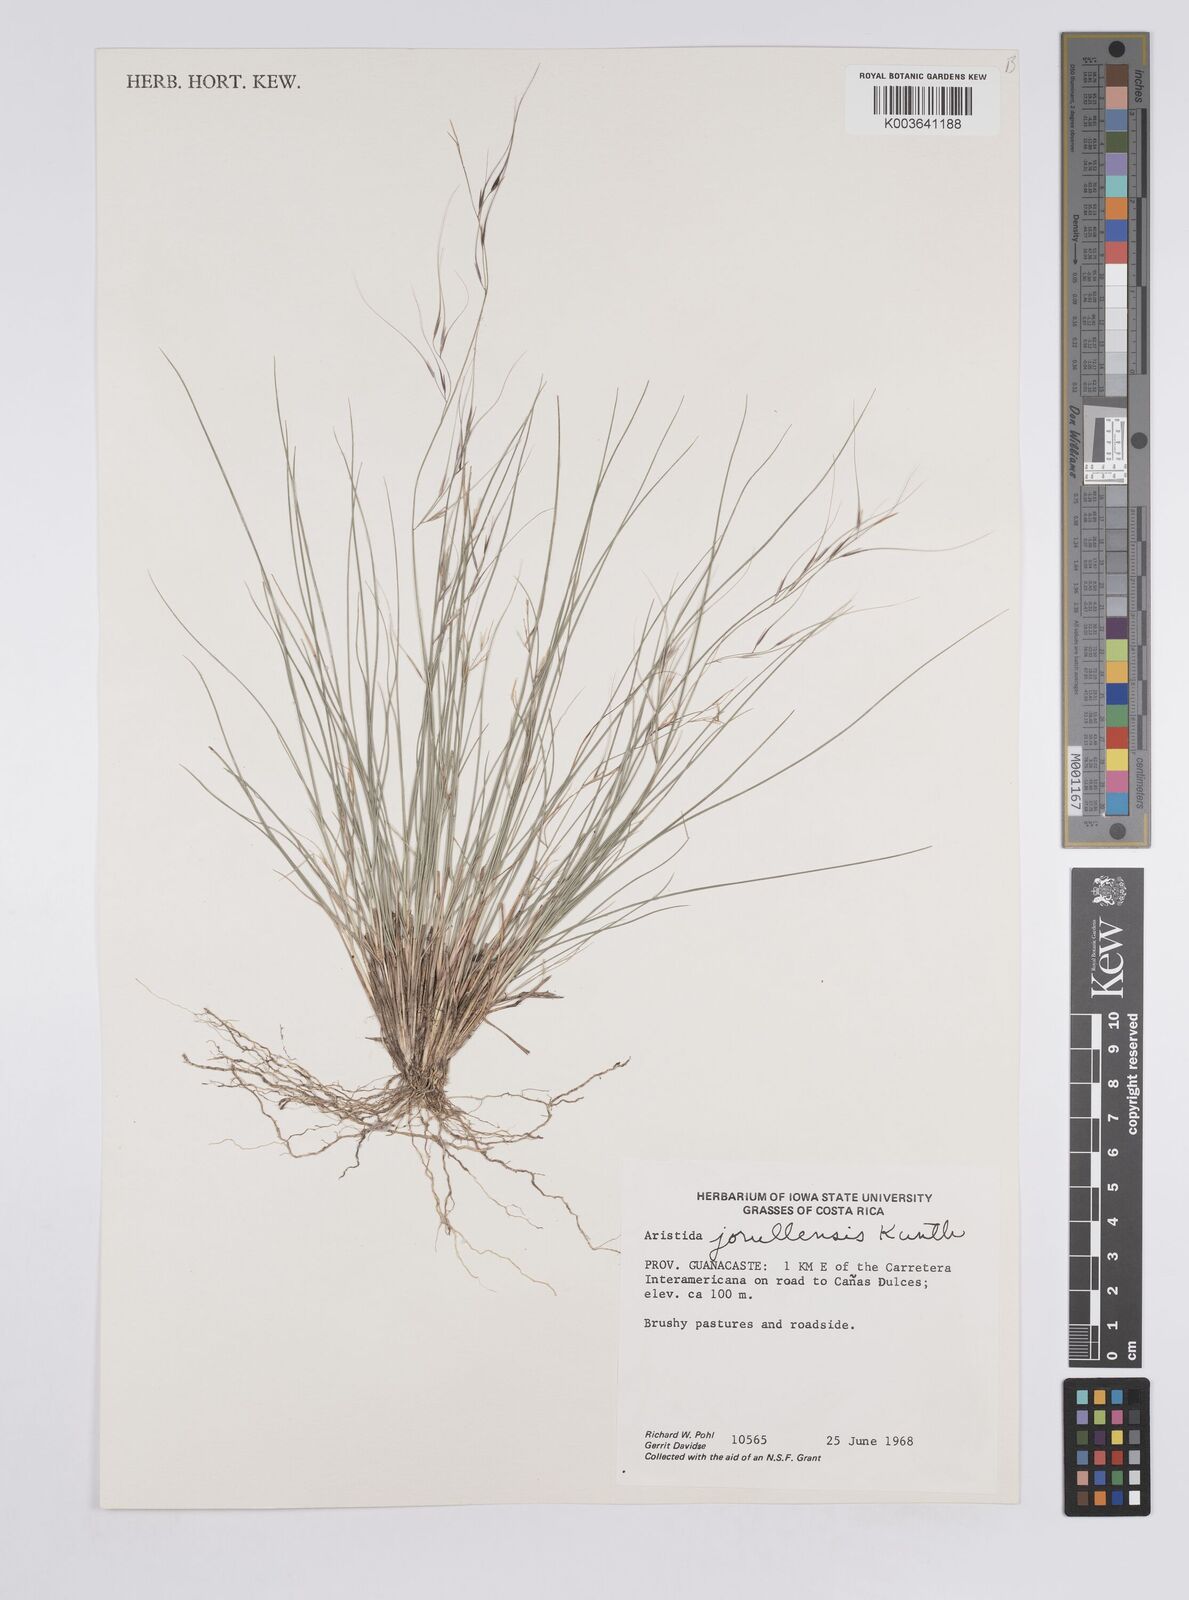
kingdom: Plantae
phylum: Tracheophyta
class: Liliopsida
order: Poales
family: Poaceae
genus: Aristida
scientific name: Aristida jorullensis
